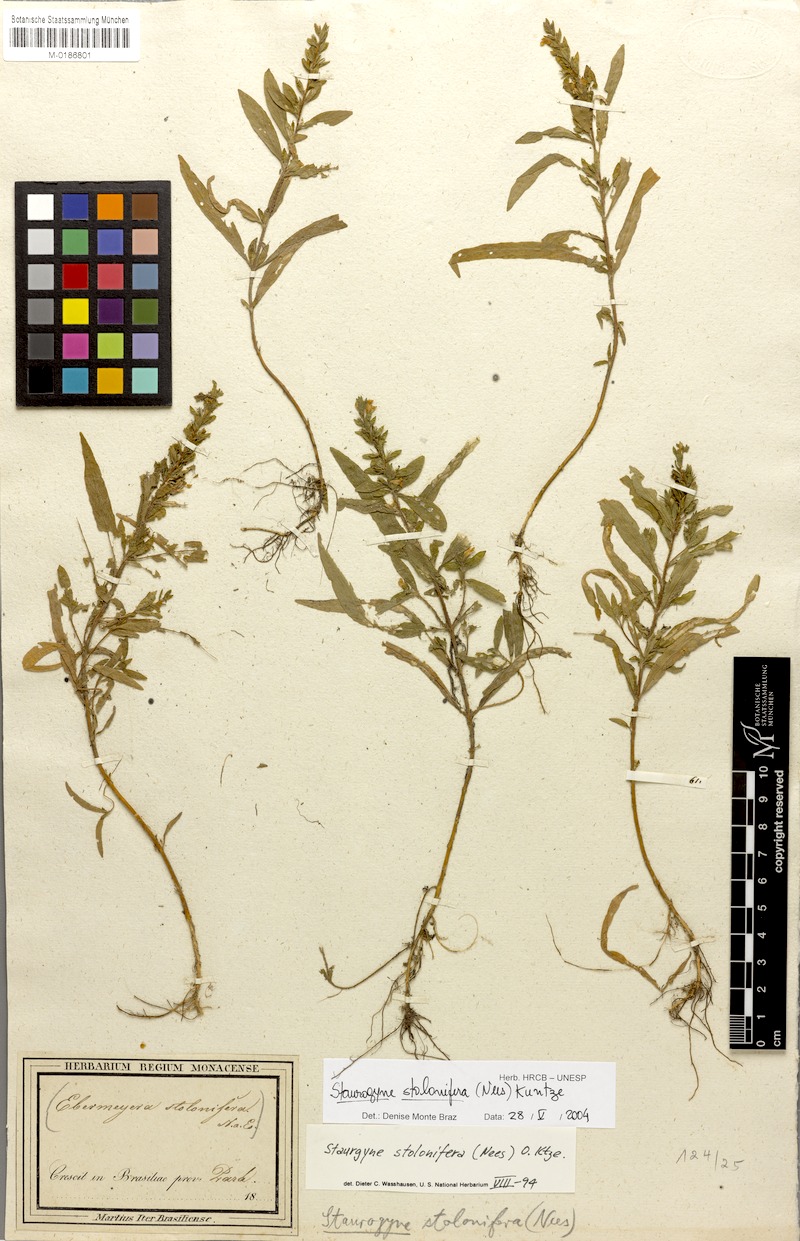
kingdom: Plantae
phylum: Tracheophyta
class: Magnoliopsida
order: Lamiales
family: Acanthaceae
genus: Staurogyne
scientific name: Staurogyne stolonifera
